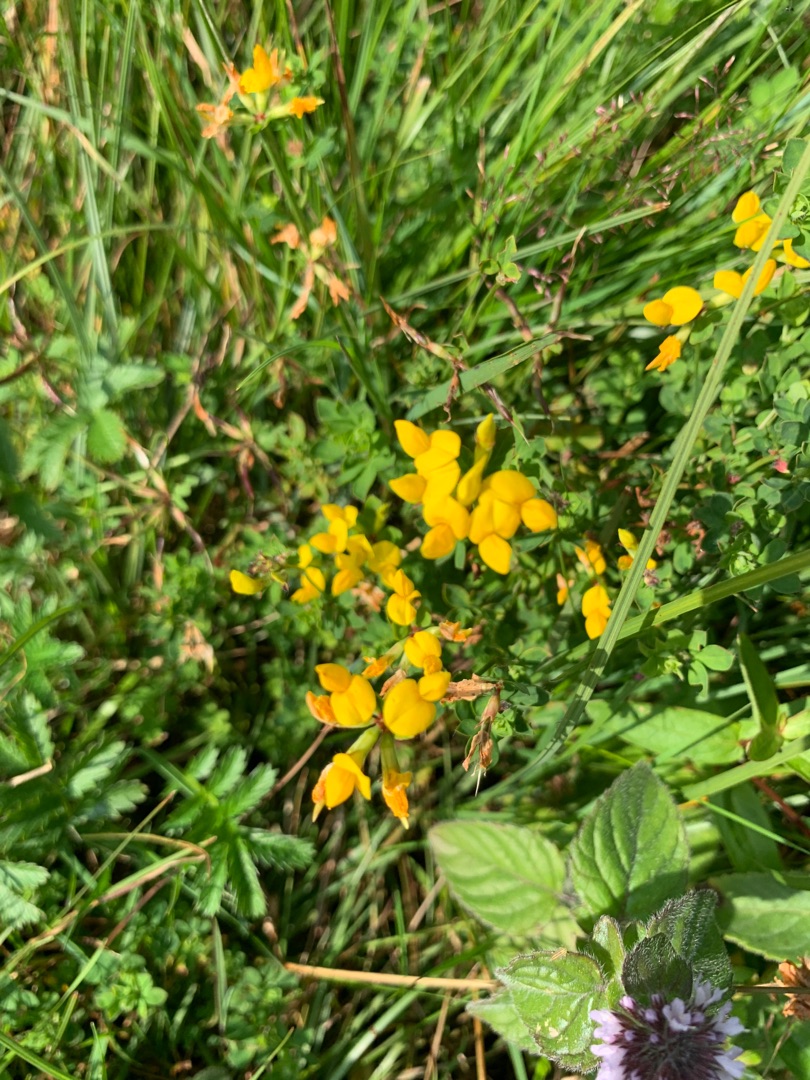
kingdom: Plantae
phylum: Tracheophyta
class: Magnoliopsida
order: Fabales
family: Fabaceae
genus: Lotus
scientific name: Lotus corniculatus
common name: Almindelig kællingetand
